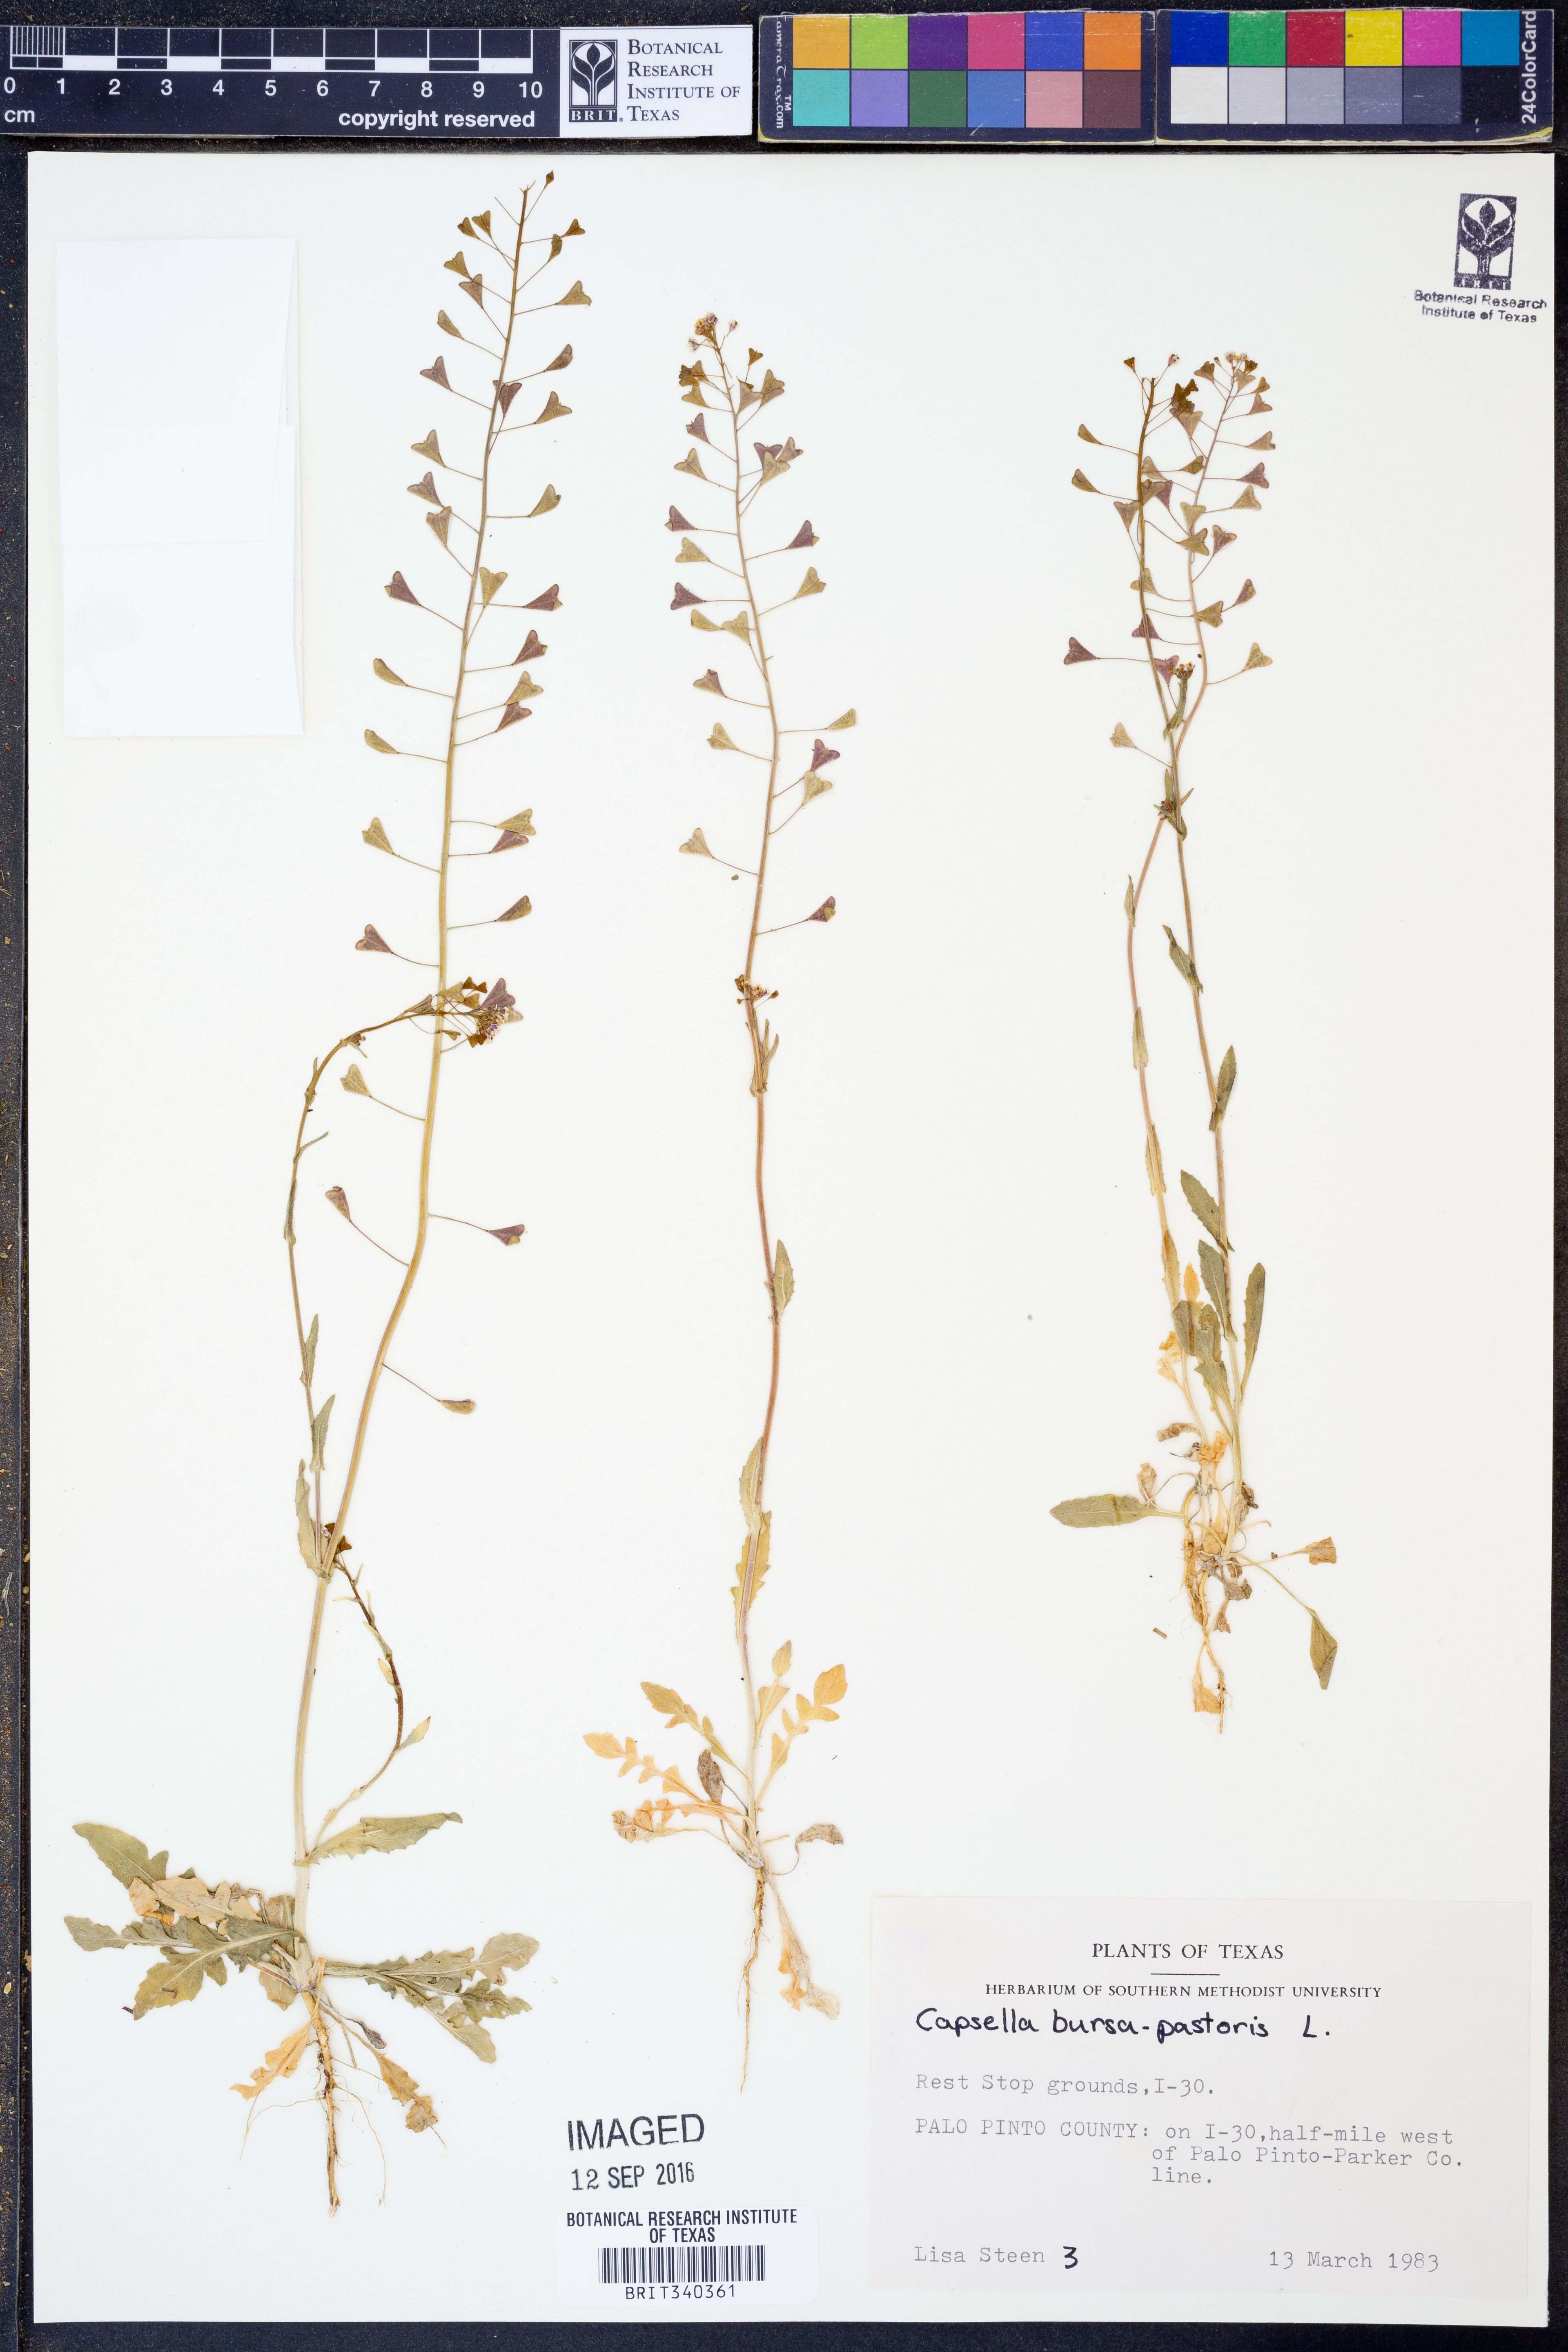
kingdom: Plantae
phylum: Tracheophyta
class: Magnoliopsida
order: Brassicales
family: Brassicaceae
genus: Capsella
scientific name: Capsella bursa-pastoris
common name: Shepherd's purse
